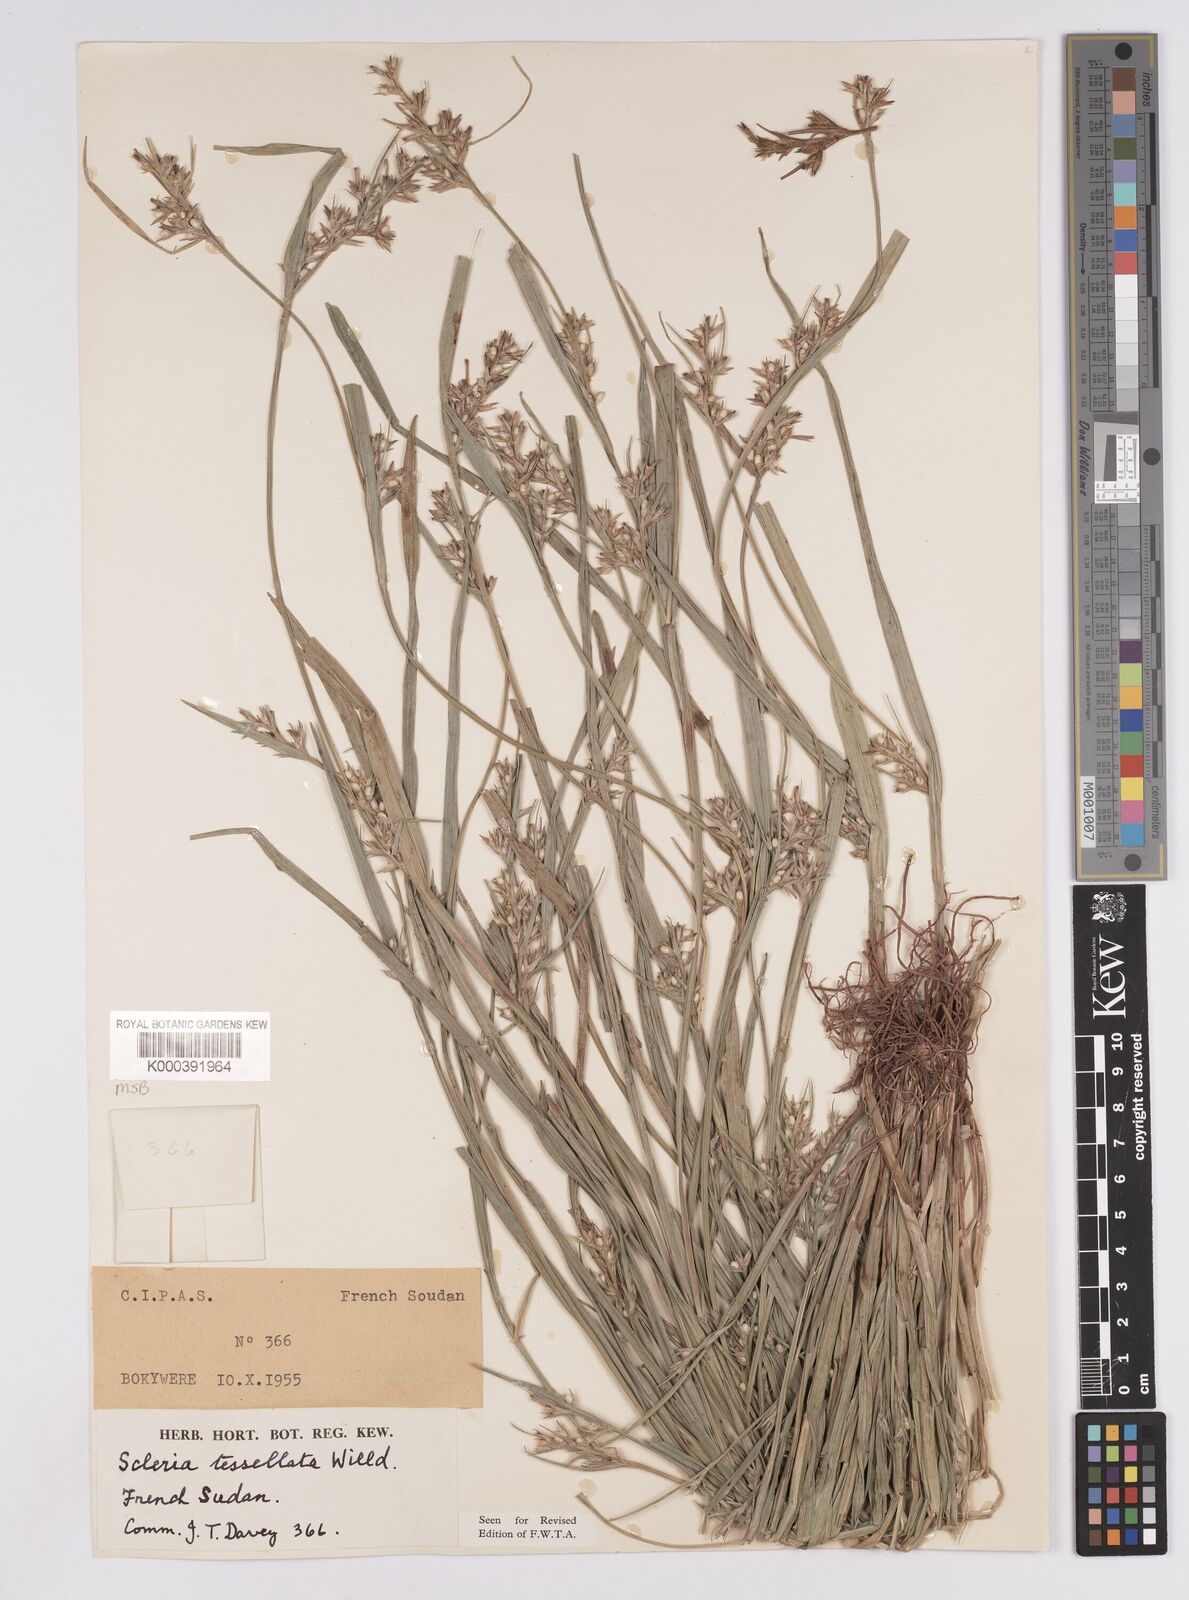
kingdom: Plantae
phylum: Tracheophyta
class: Liliopsida
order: Poales
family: Cyperaceae
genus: Scleria
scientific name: Scleria tessellata
